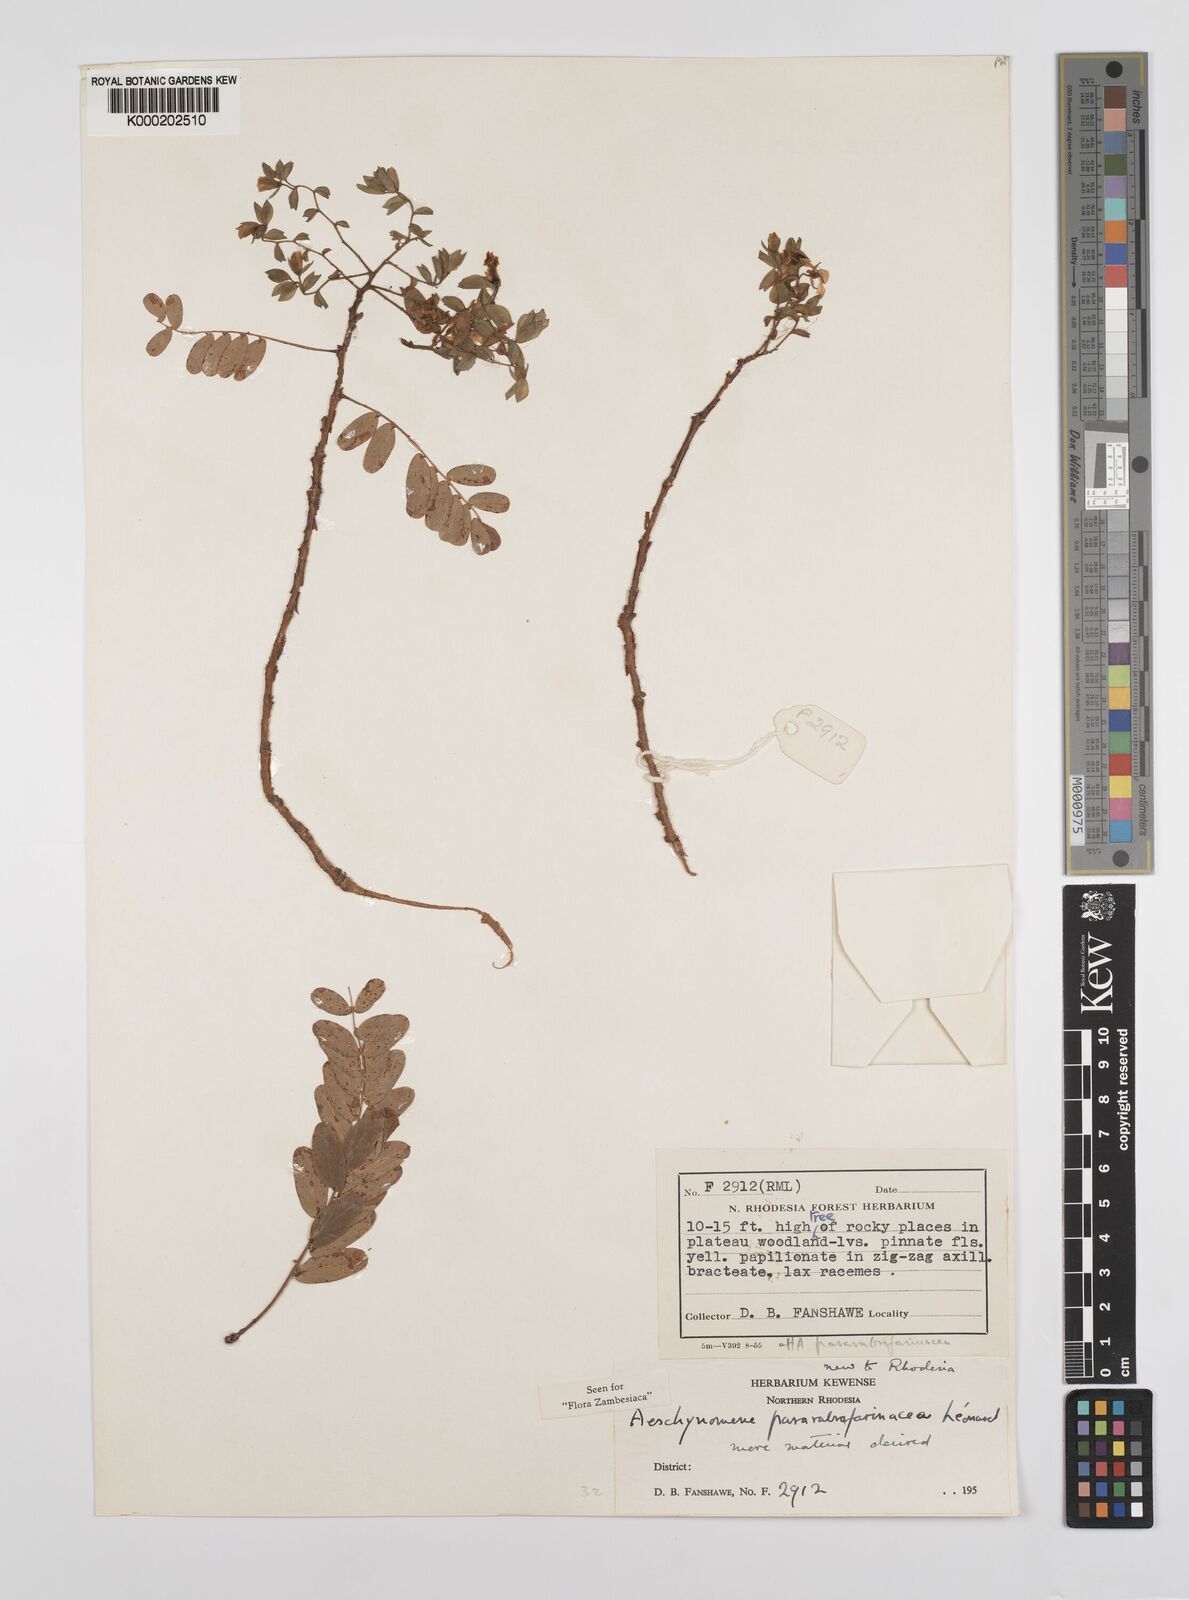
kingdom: Plantae
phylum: Tracheophyta
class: Magnoliopsida
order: Fabales
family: Fabaceae
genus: Aeschynomene
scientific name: Aeschynomene pararubrofarinacea
